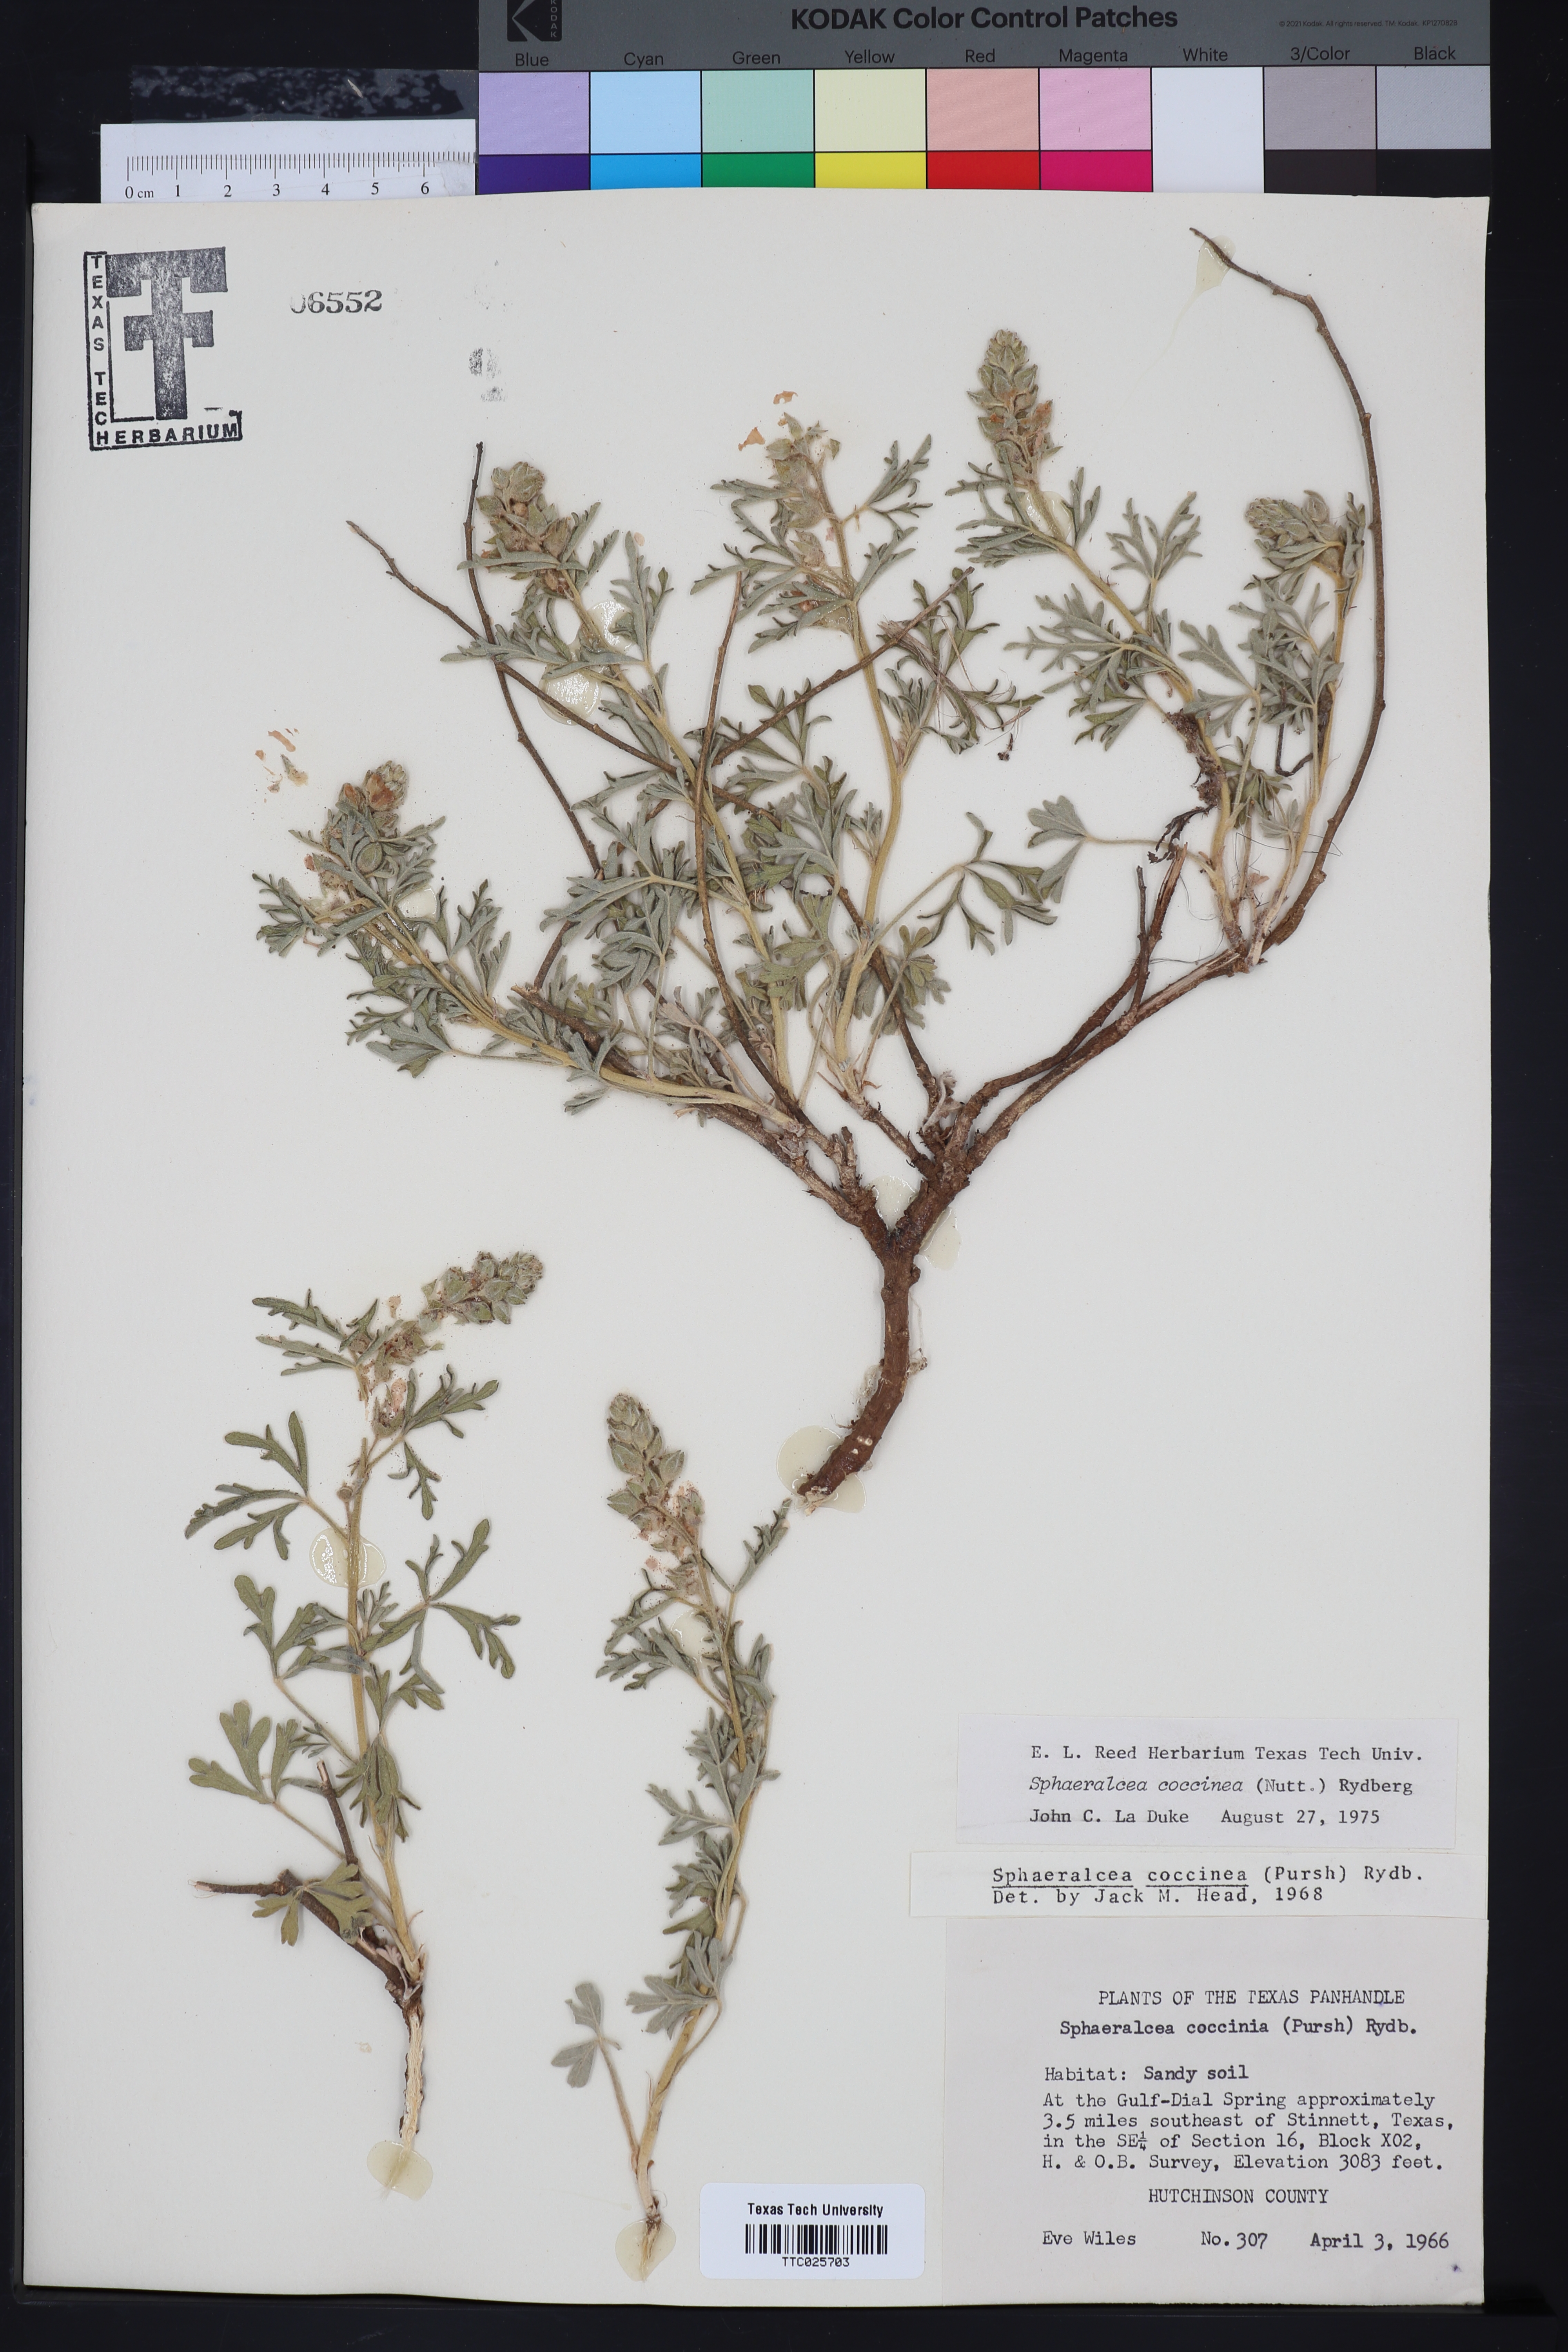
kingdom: Plantae
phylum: Tracheophyta
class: Magnoliopsida
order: Malvales
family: Malvaceae
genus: Sphaeralcea
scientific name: Sphaeralcea coccinea
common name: Moss-rose
